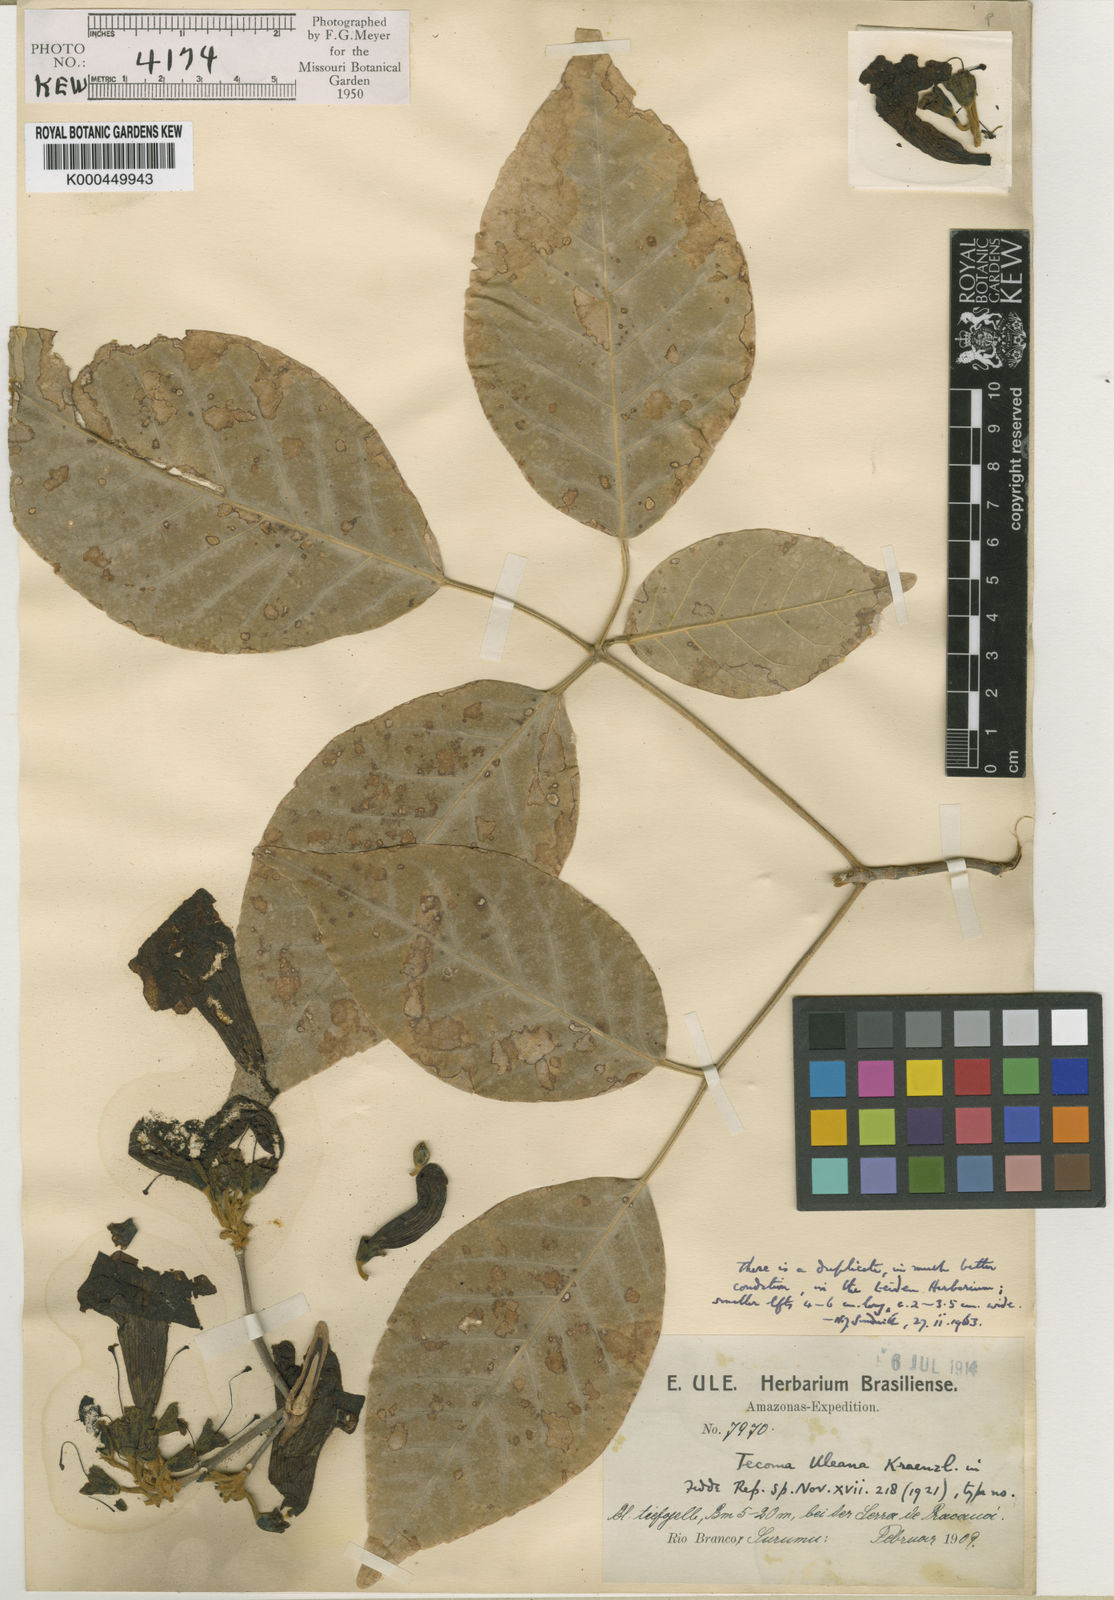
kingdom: Plantae
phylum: Tracheophyta
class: Magnoliopsida
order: Lamiales
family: Bignoniaceae
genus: Handroanthus
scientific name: Handroanthus uleanus
